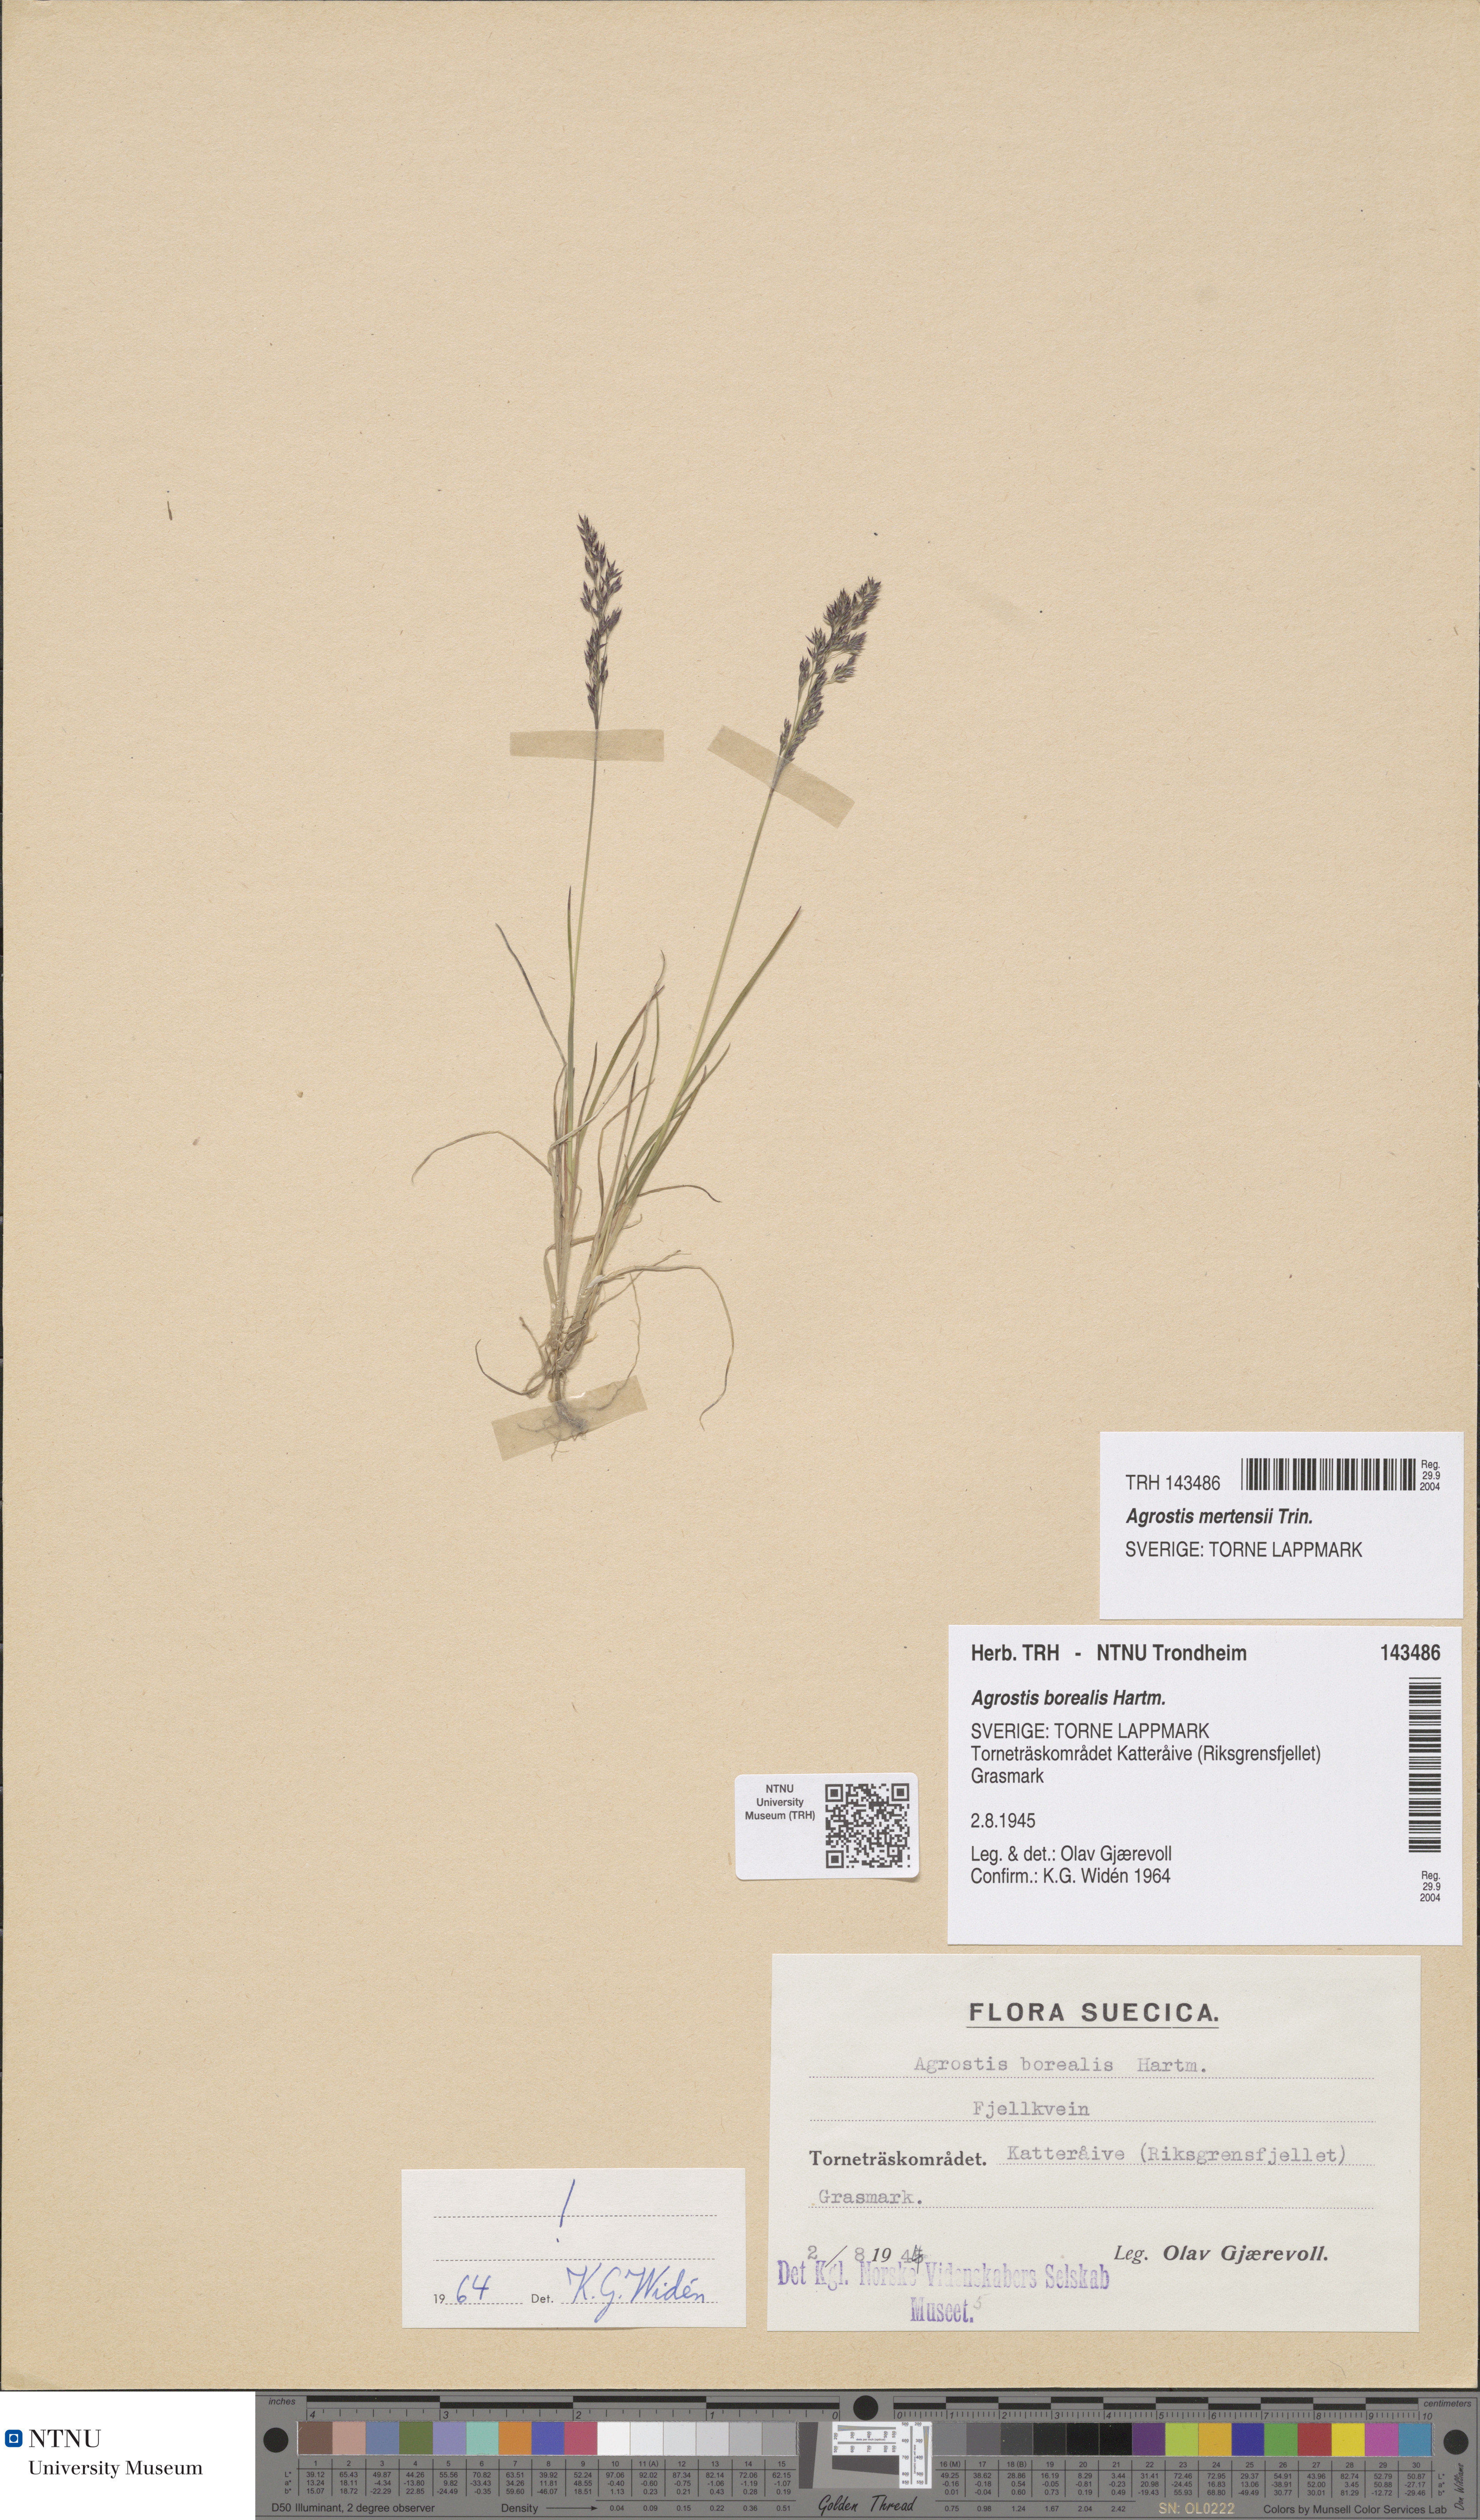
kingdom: Plantae
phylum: Tracheophyta
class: Liliopsida
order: Poales
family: Poaceae
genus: Agrostis
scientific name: Agrostis mertensii
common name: Northern bent
